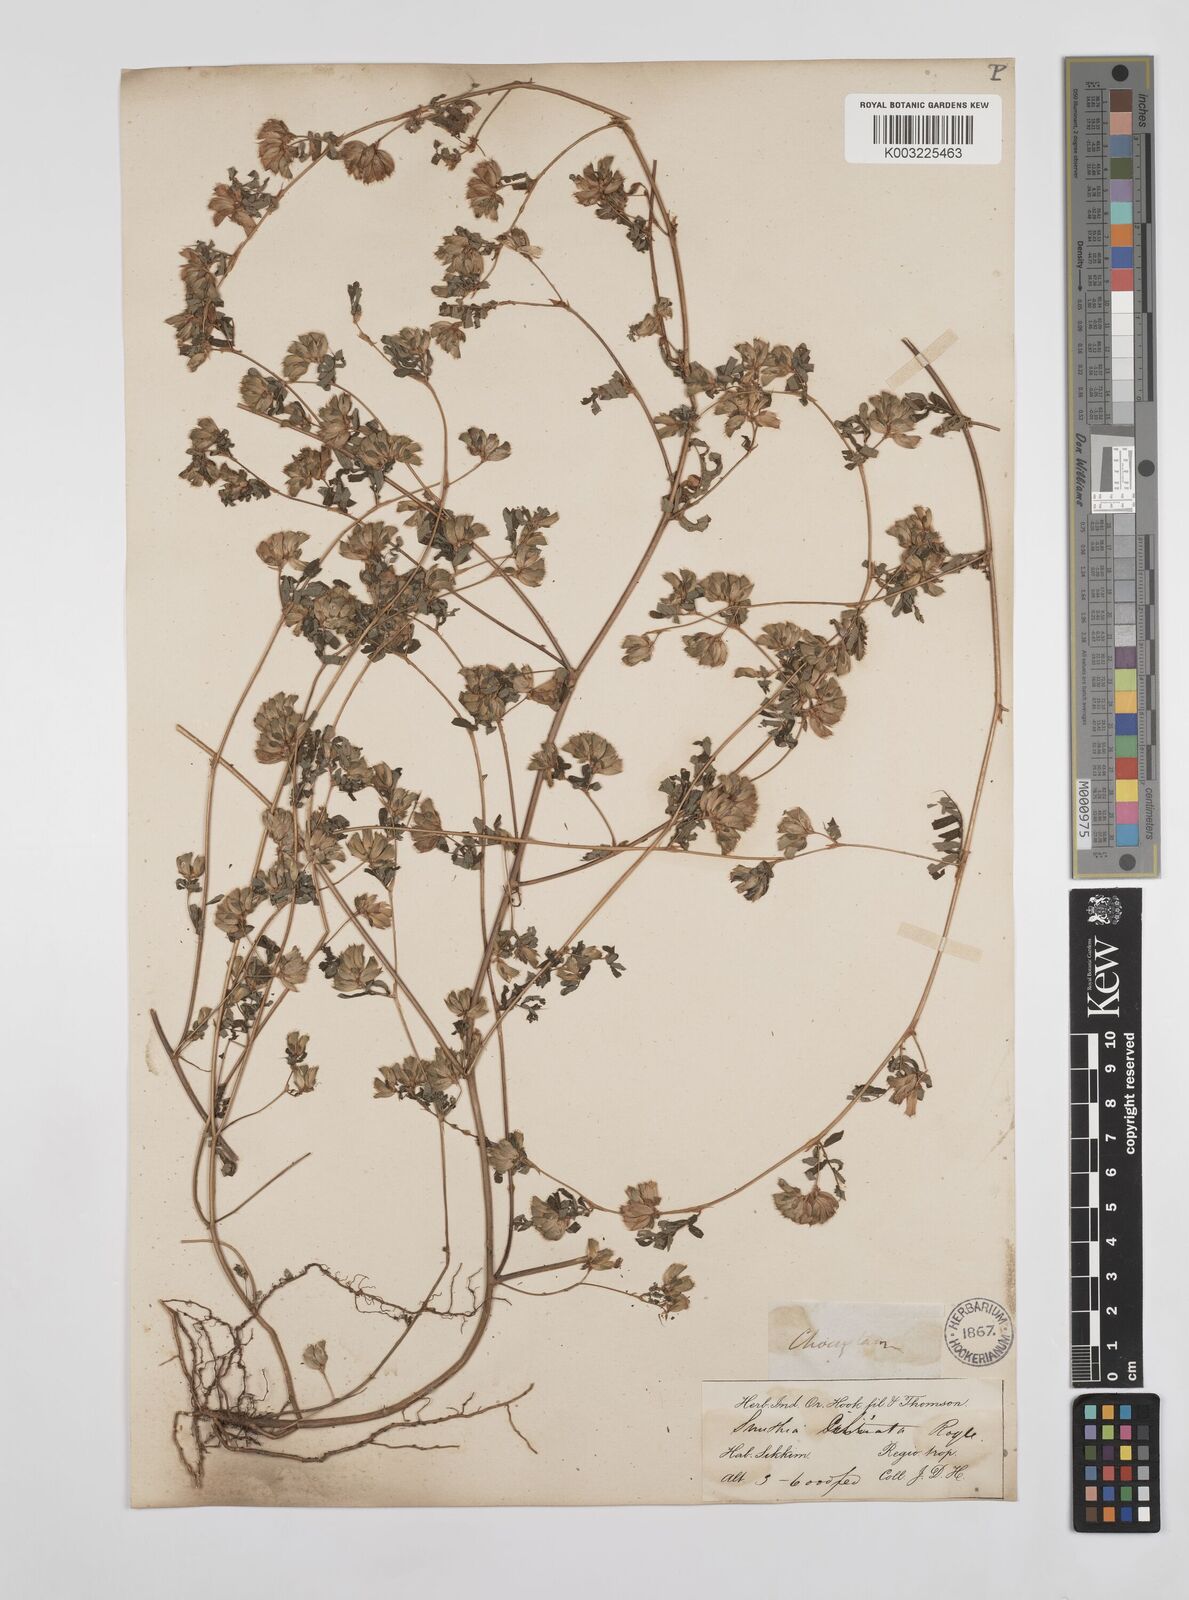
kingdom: Plantae
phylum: Tracheophyta
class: Magnoliopsida
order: Fabales
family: Fabaceae
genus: Smithia
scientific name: Smithia ciliata
